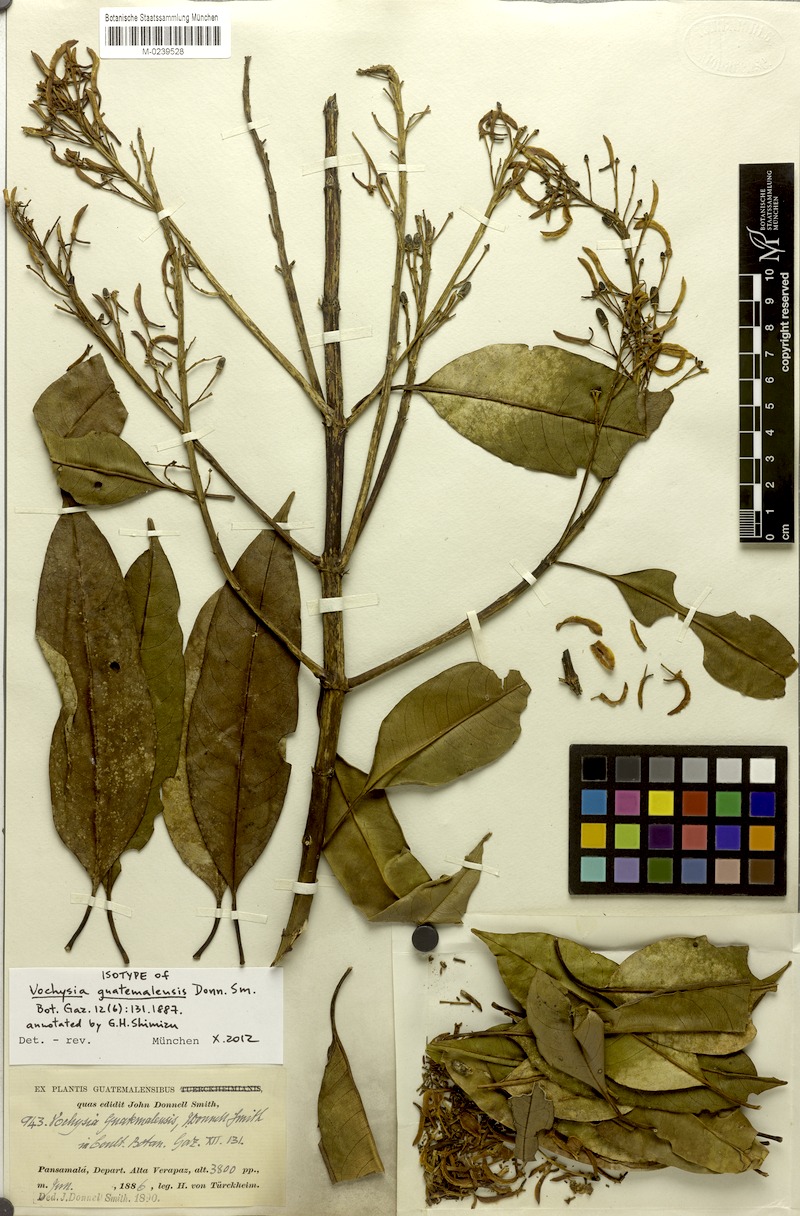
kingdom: Plantae
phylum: Tracheophyta
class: Magnoliopsida
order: Myrtales
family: Vochysiaceae
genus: Vochysia
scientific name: Vochysia guatemalensis
